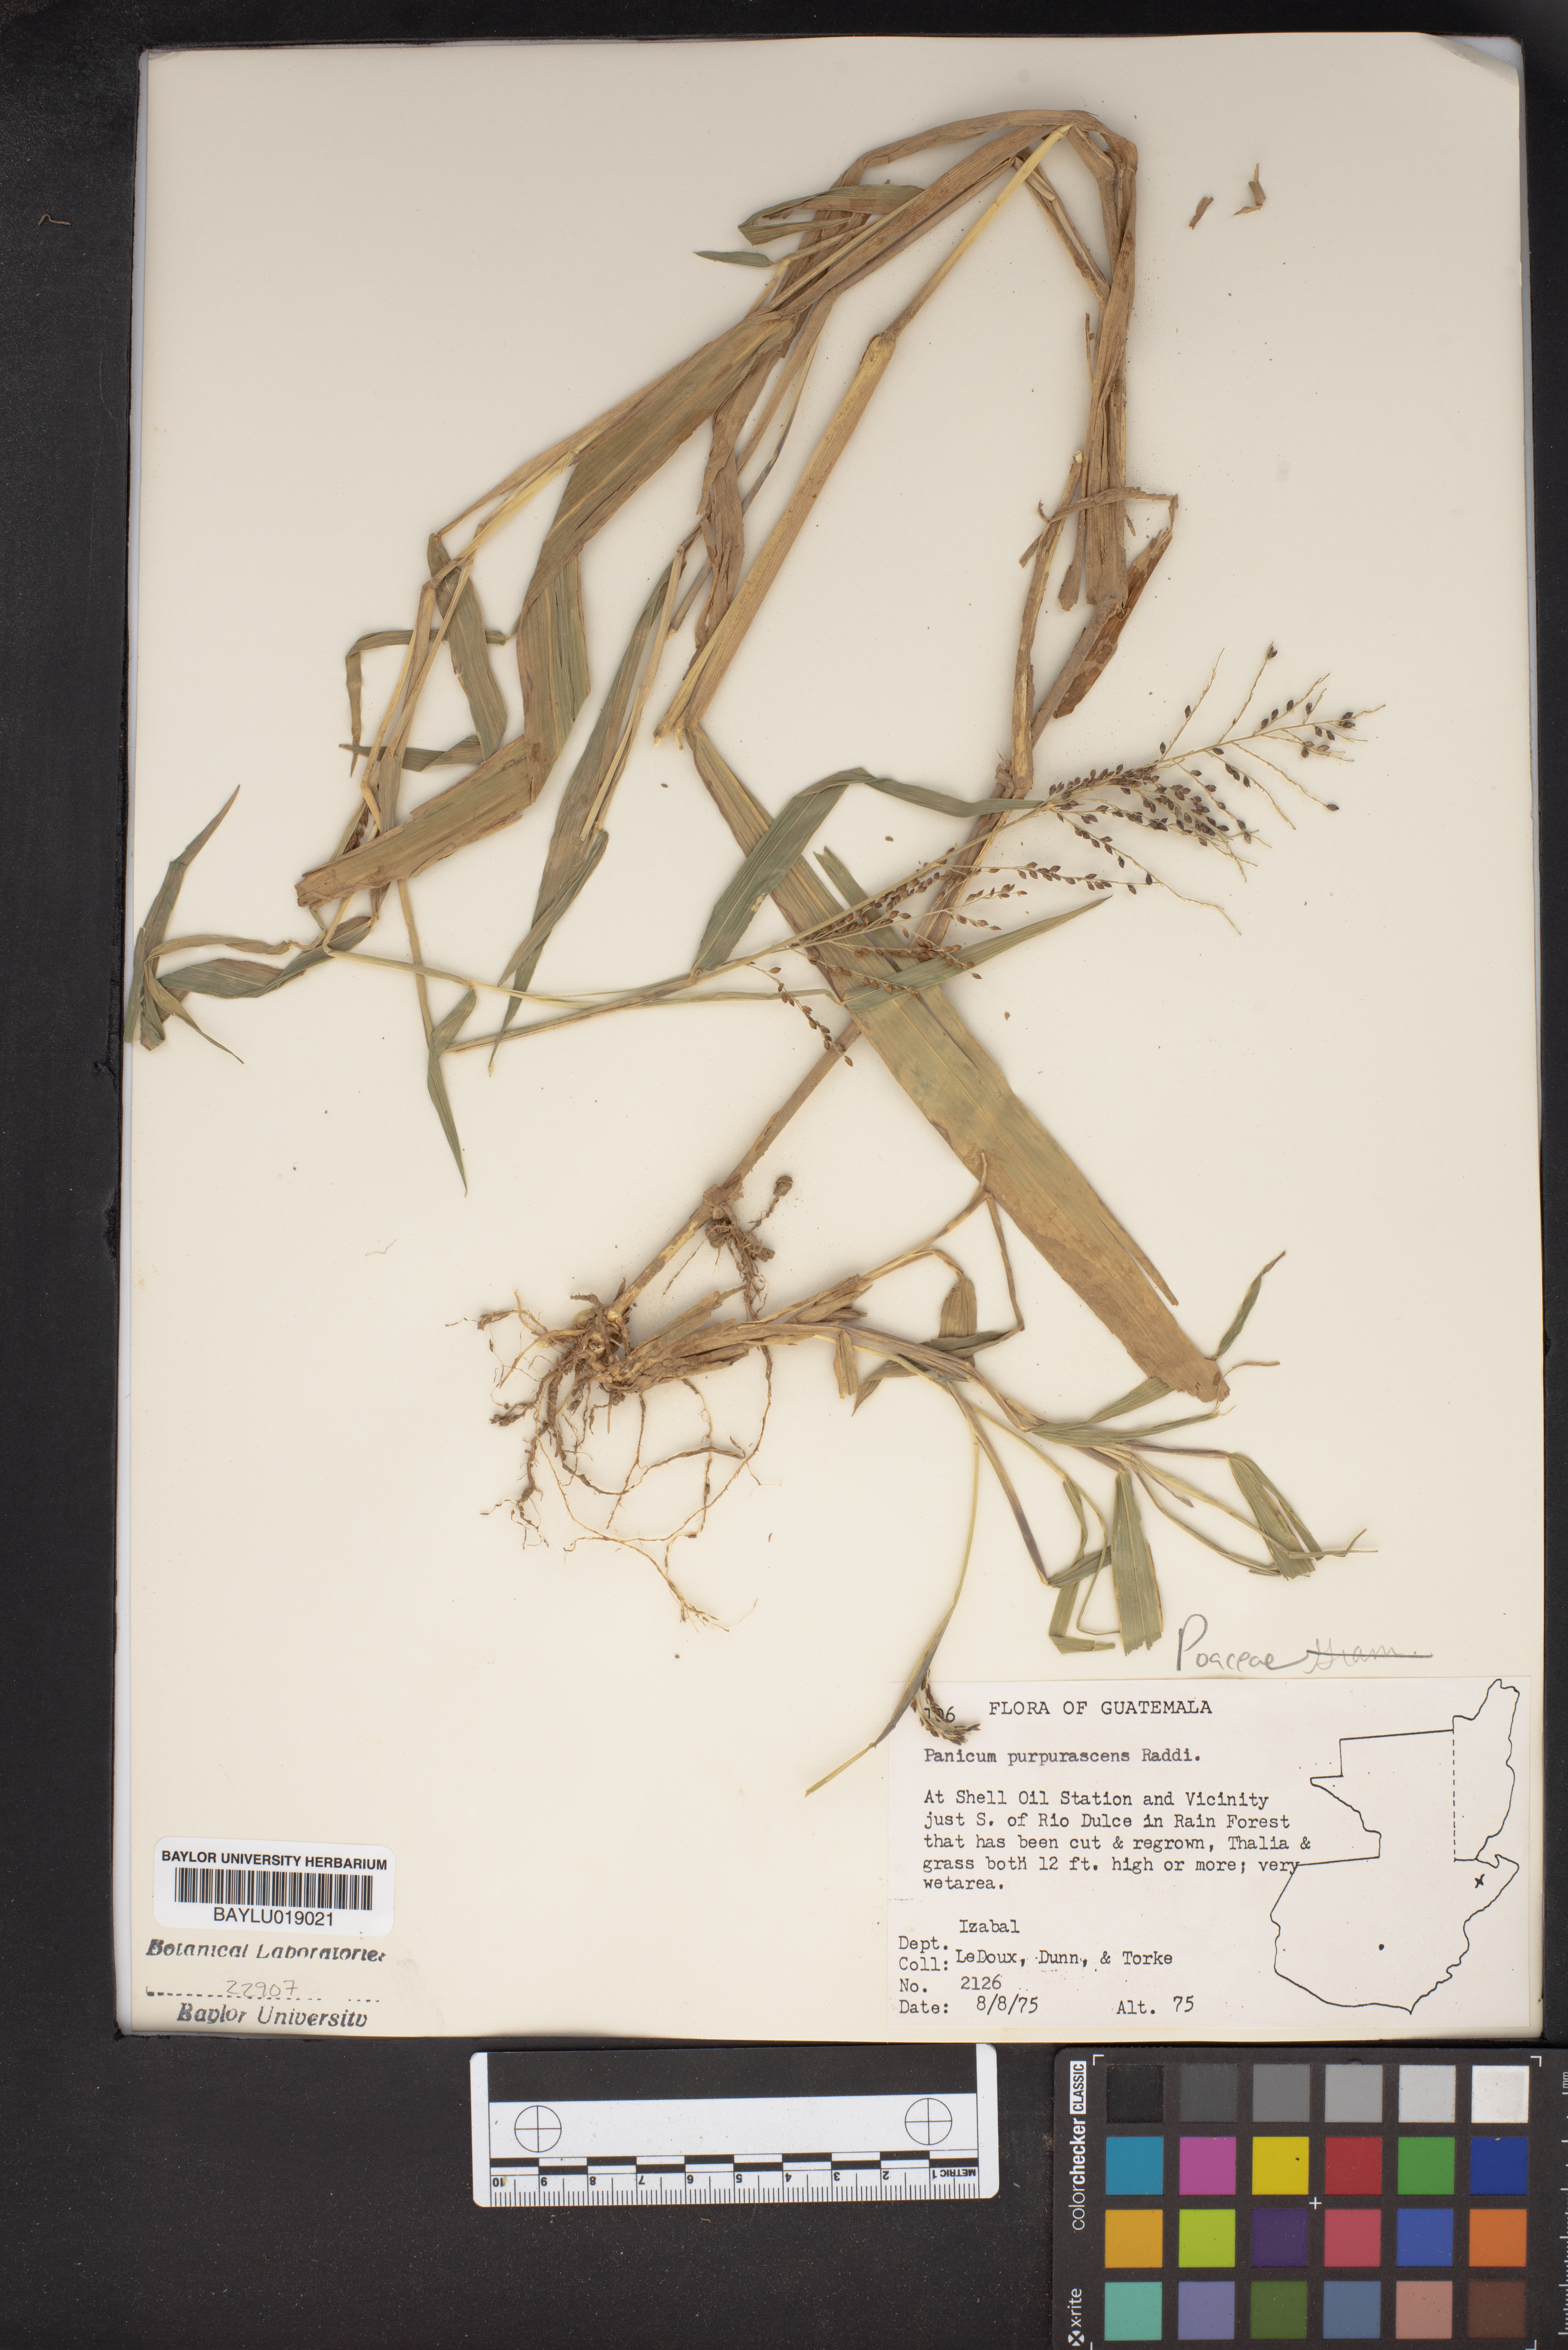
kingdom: Plantae
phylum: Tracheophyta
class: Liliopsida
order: Poales
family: Poaceae
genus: Panicum
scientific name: Panicum fluviicola
